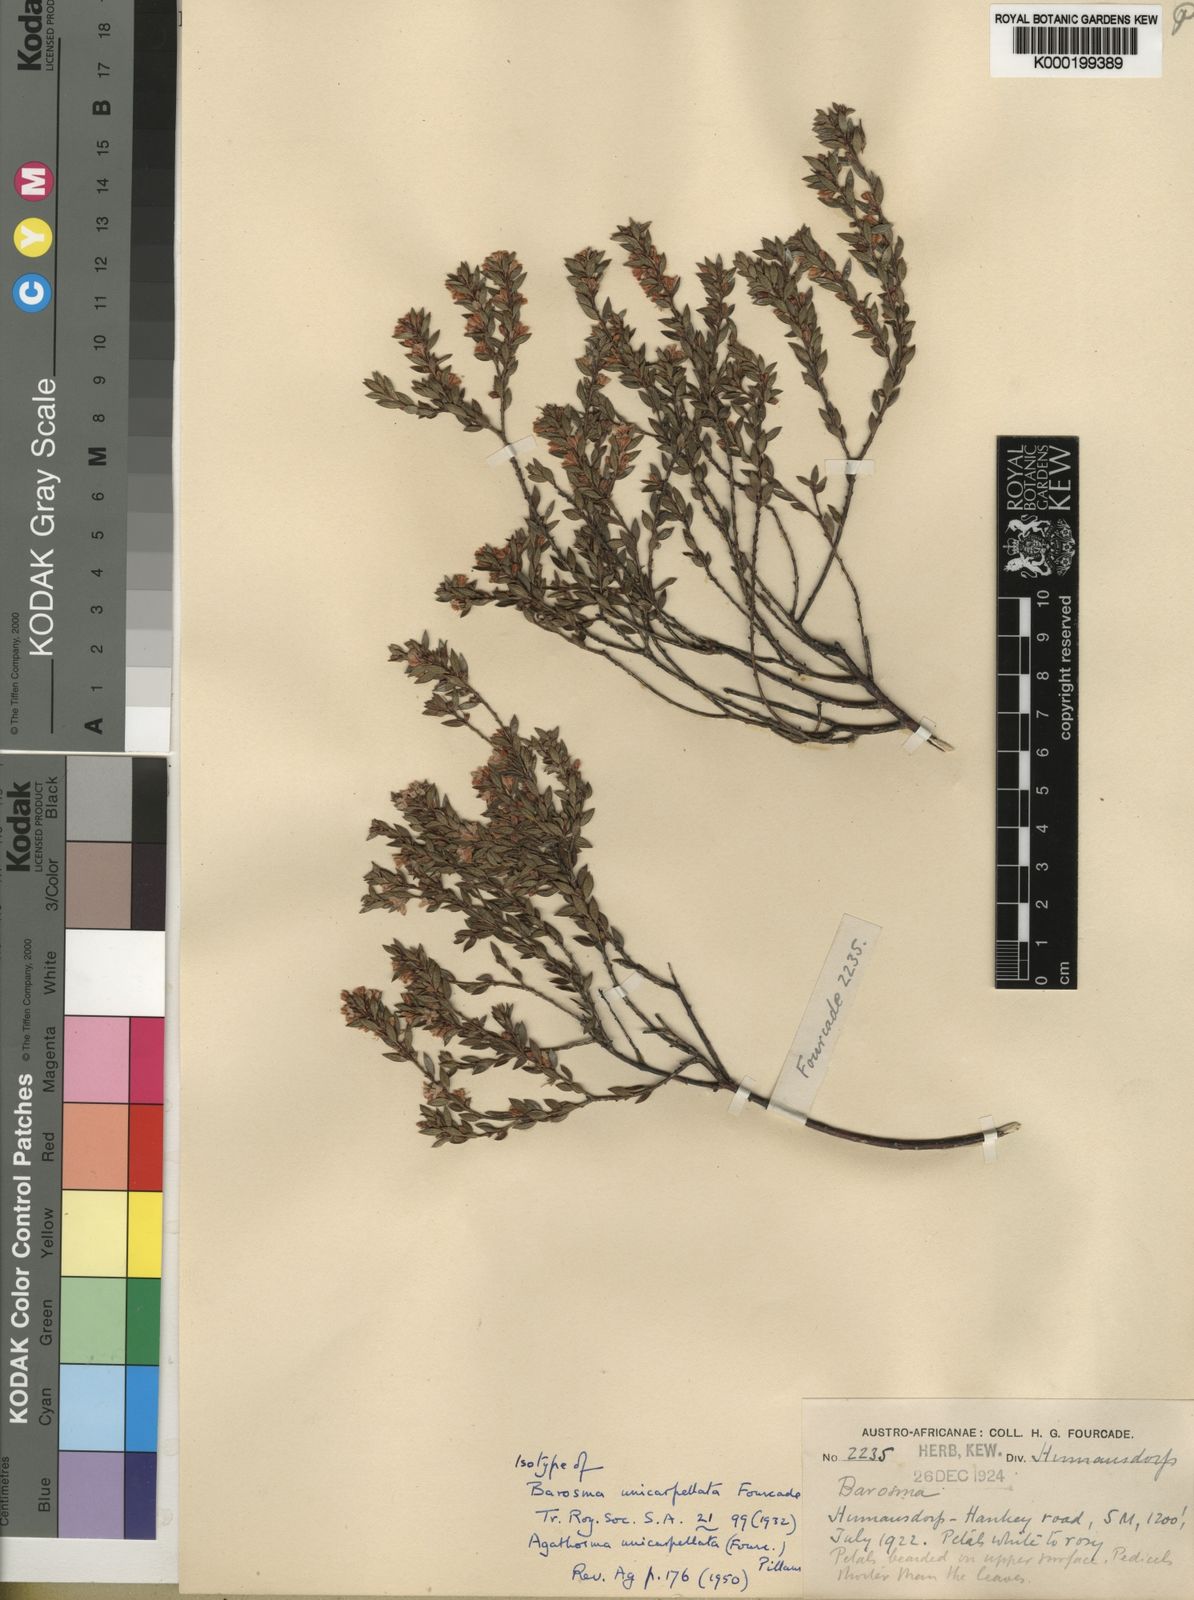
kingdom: Plantae
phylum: Tracheophyta
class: Magnoliopsida
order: Sapindales
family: Rutaceae
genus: Agathosma
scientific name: Agathosma unicarpellata
